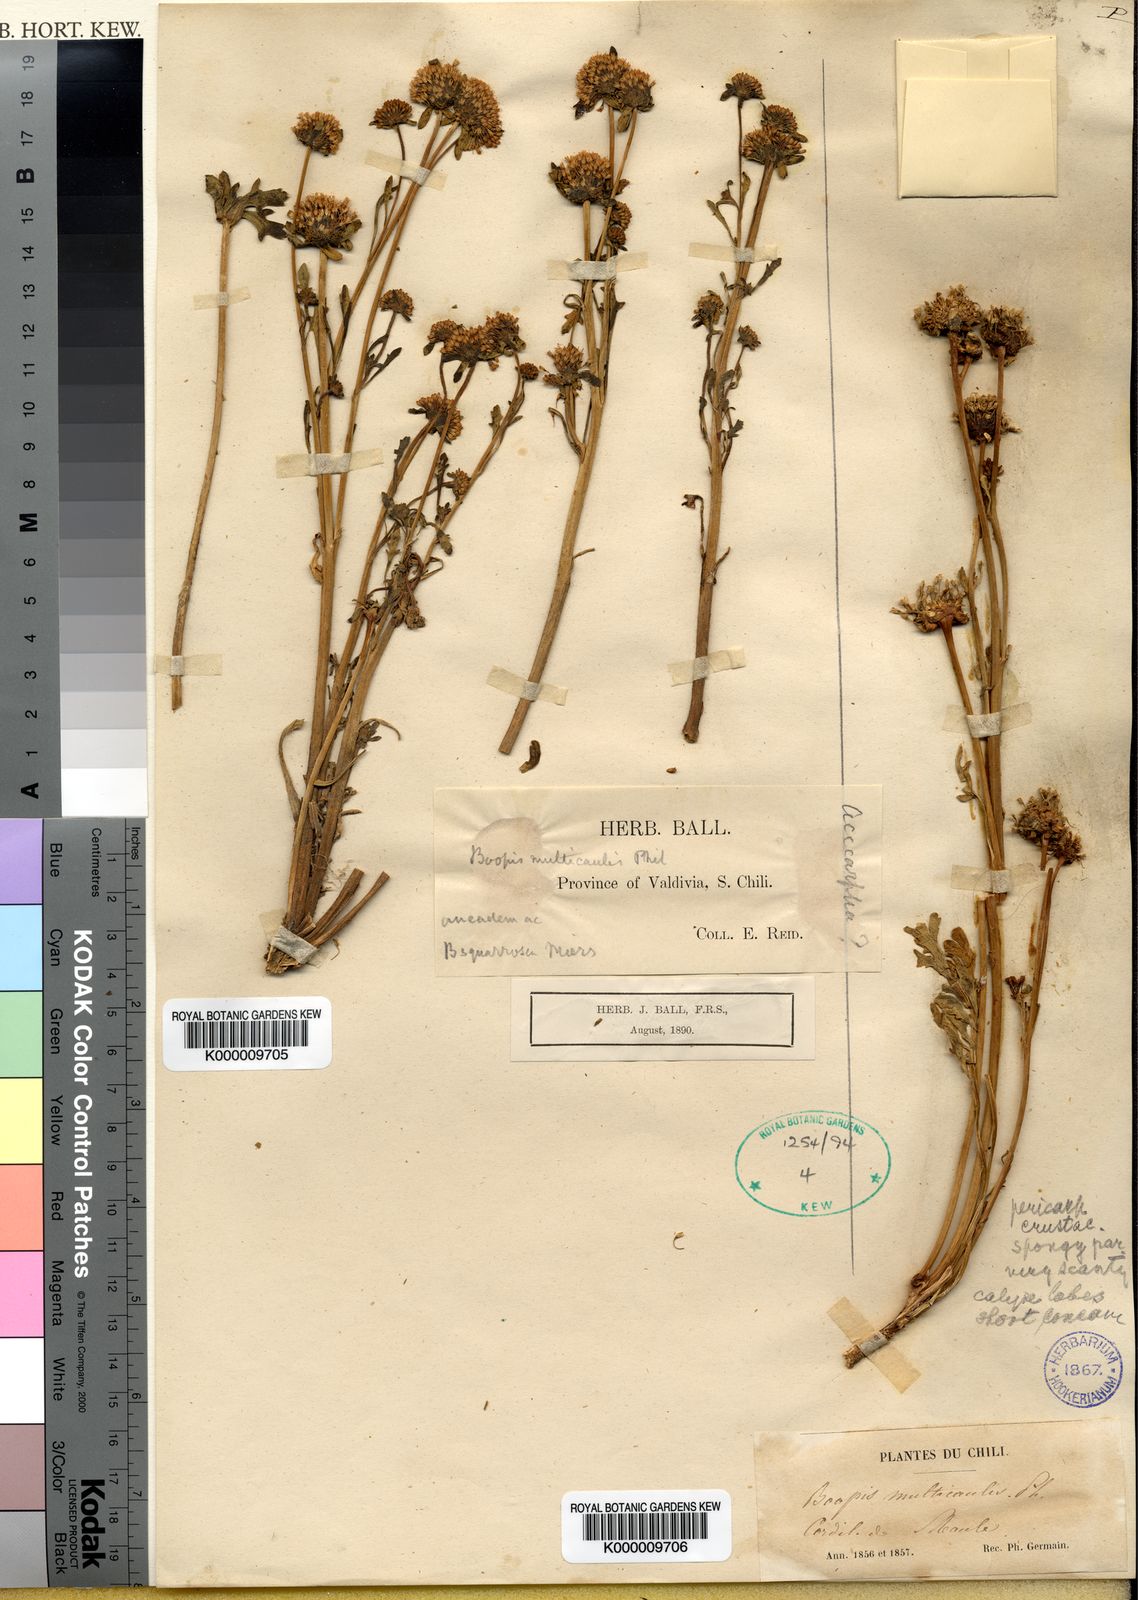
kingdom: Plantae
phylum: Tracheophyta
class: Magnoliopsida
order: Asterales
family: Calyceraceae
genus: Gamocarpha
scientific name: Gamocarpha multicaulis
